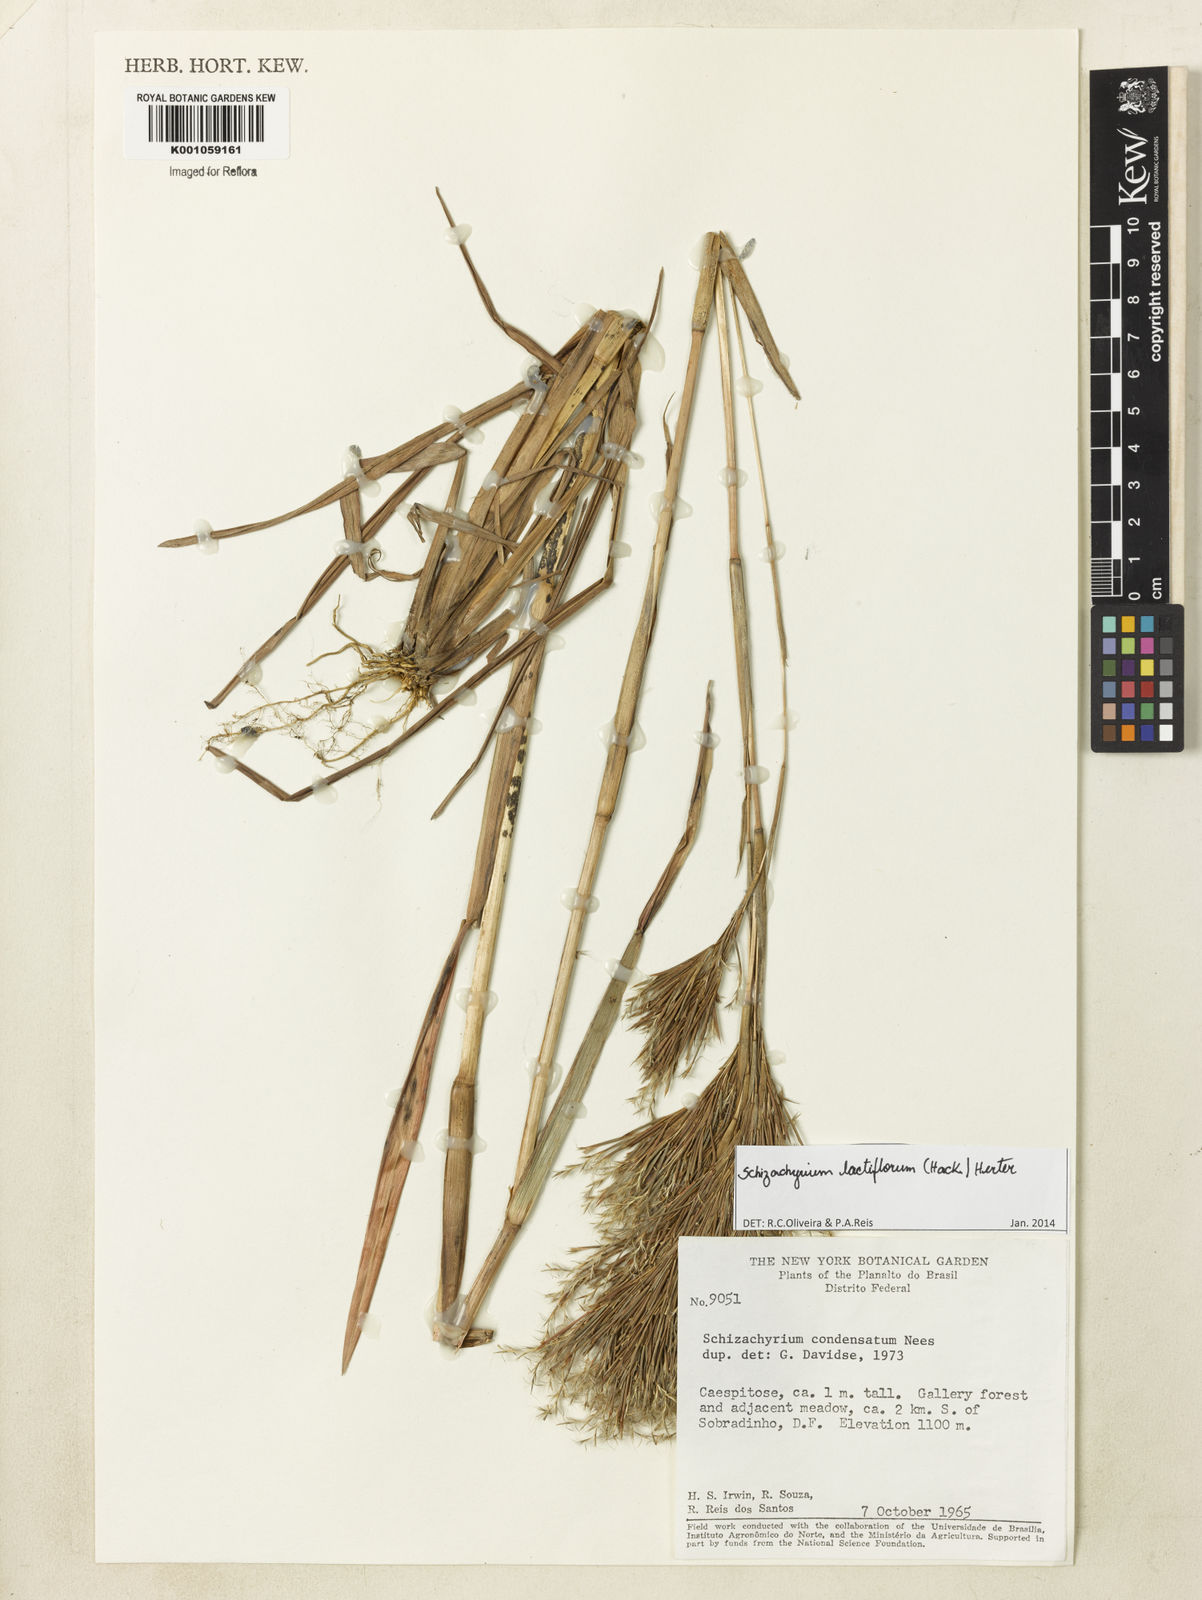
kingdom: Plantae
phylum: Tracheophyta
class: Liliopsida
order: Poales
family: Poaceae
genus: Schizachyrium
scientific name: Schizachyrium condensatum
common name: Bush beardgrass
